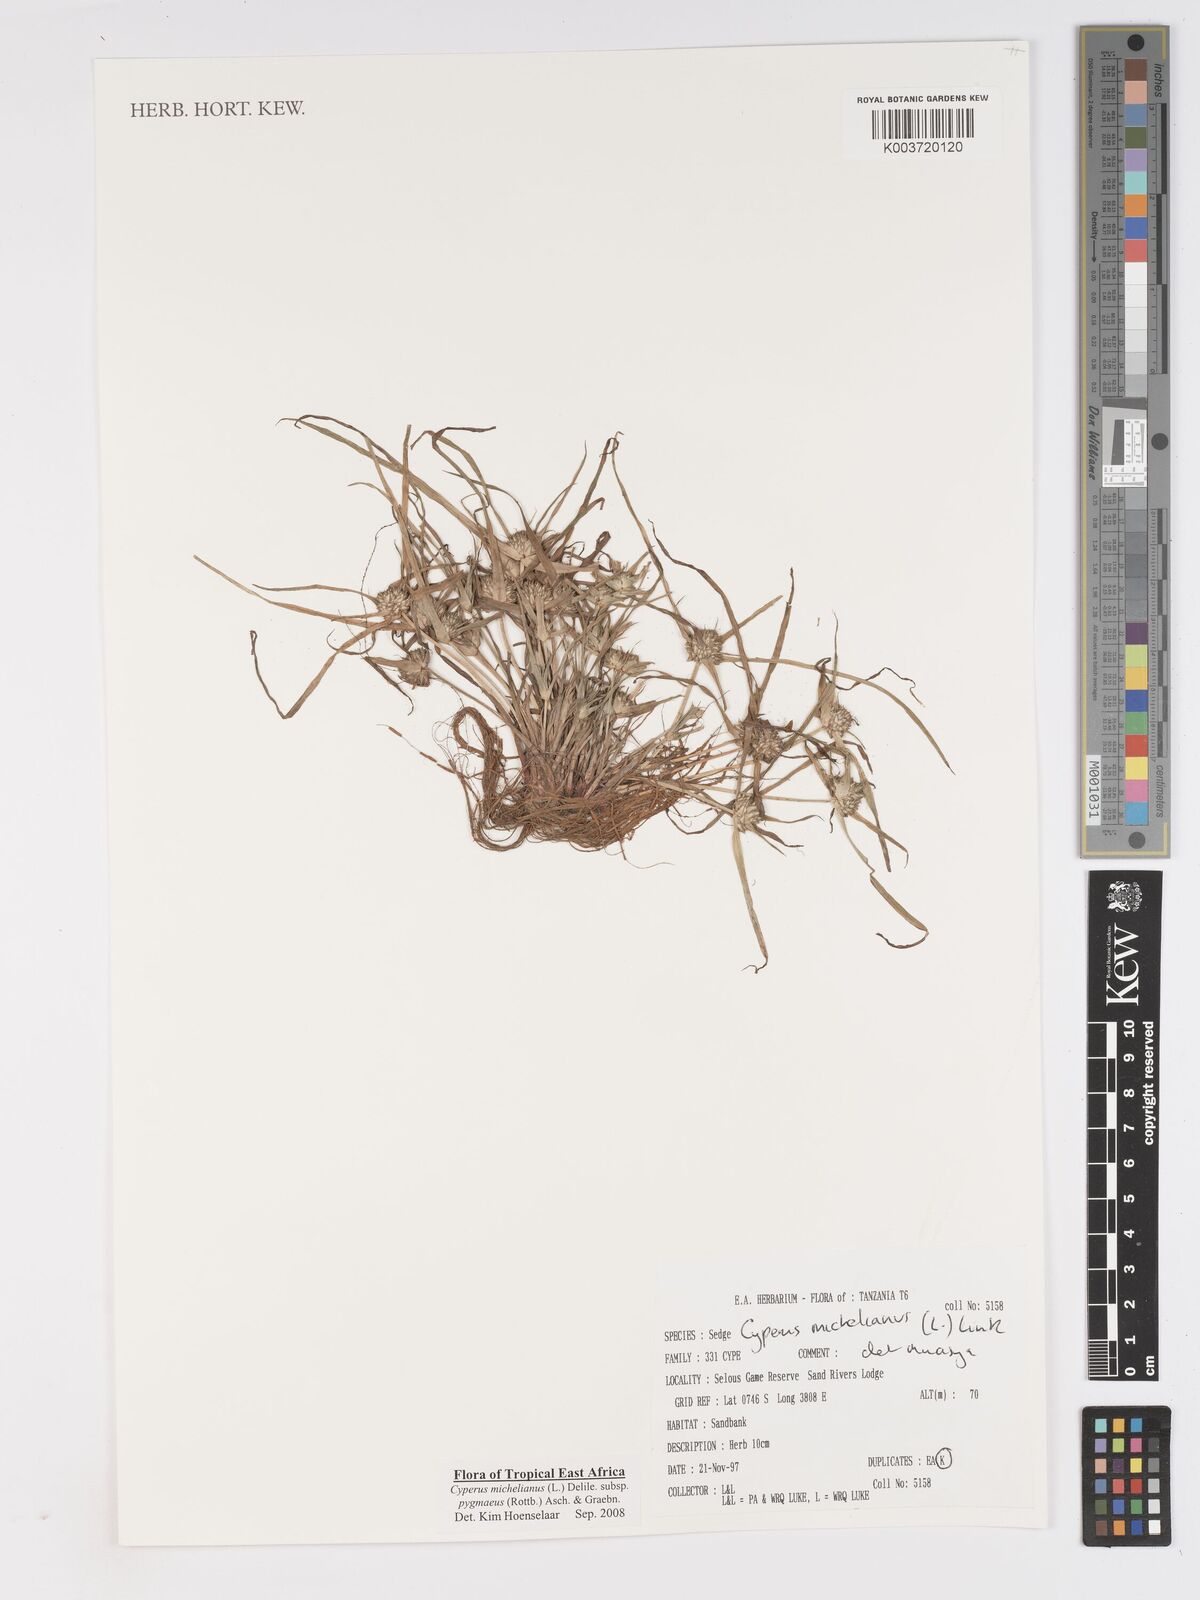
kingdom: Plantae
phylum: Tracheophyta
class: Liliopsida
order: Poales
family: Cyperaceae
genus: Cyperus
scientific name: Cyperus michelianus
